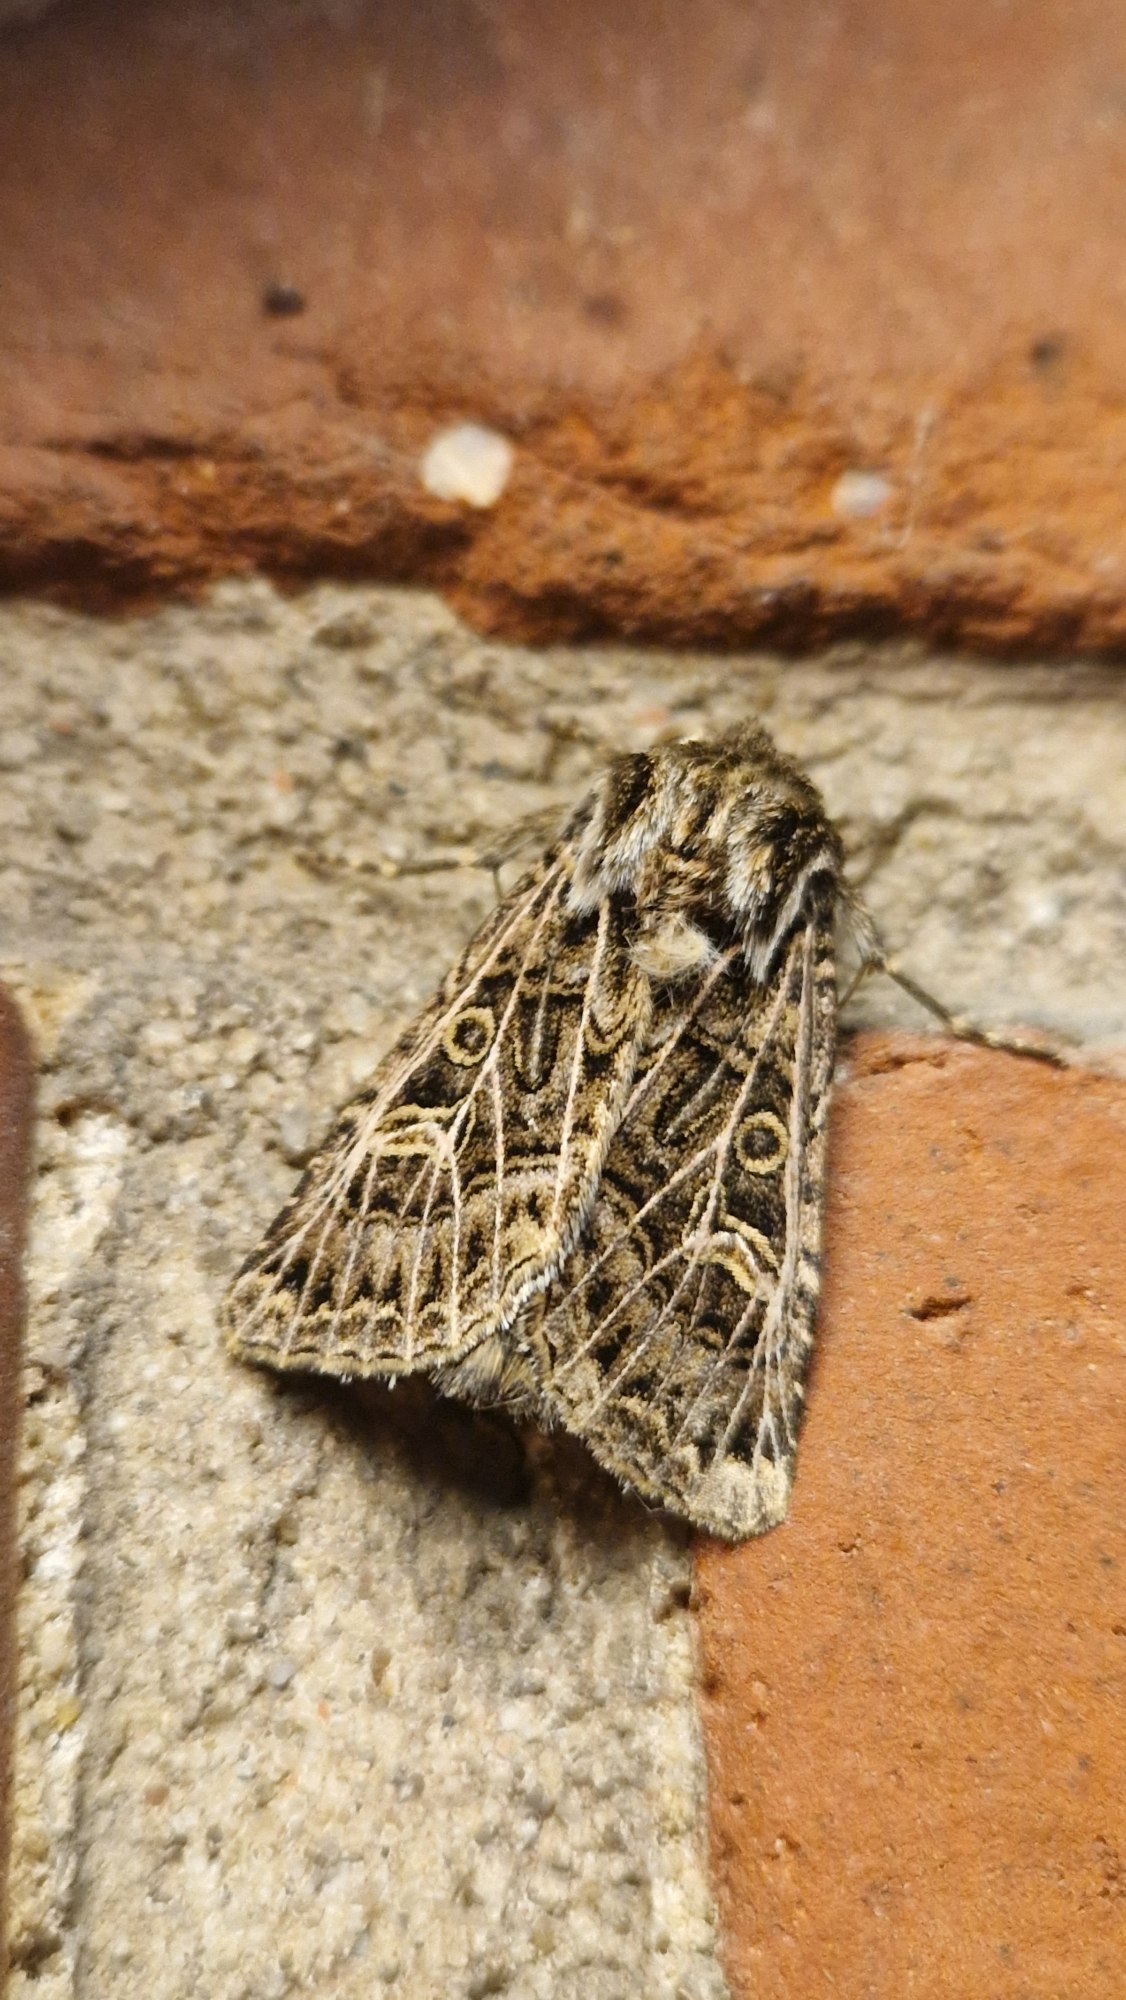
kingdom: Animalia
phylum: Arthropoda
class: Insecta
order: Lepidoptera
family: Noctuidae
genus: Tholera
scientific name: Tholera decimalis
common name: Hvidåret græsugle
